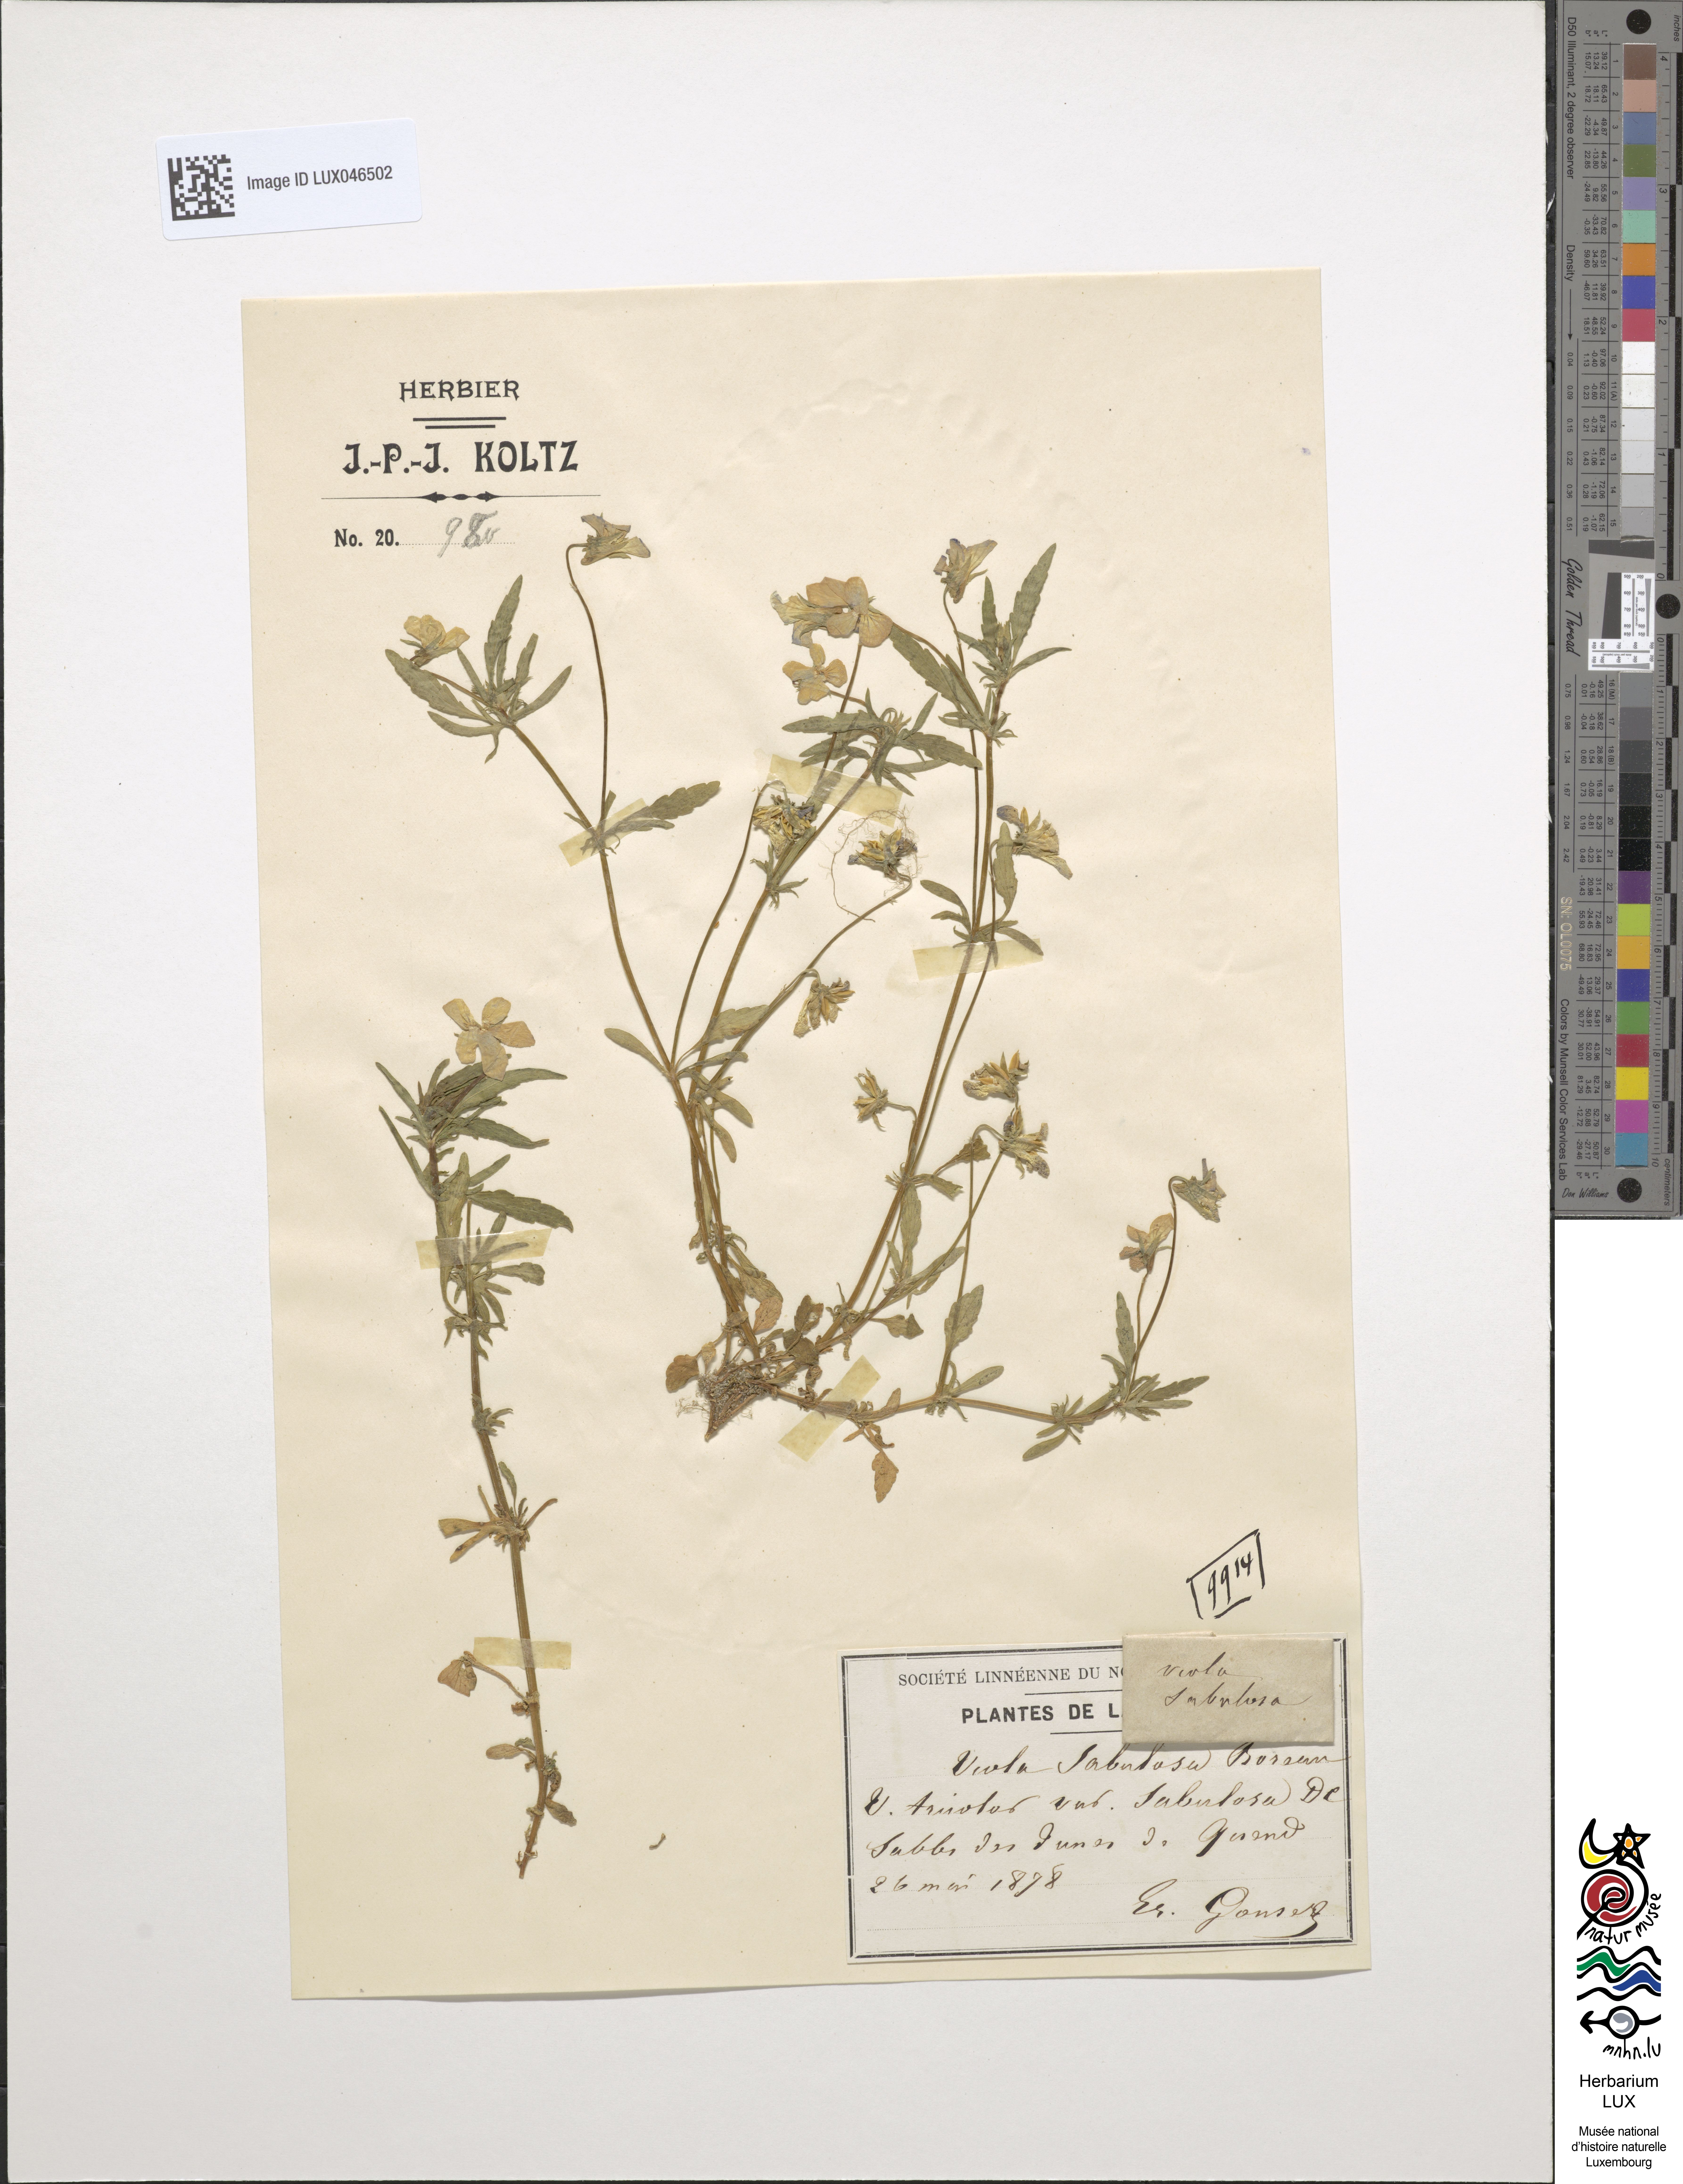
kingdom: Plantae
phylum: Tracheophyta
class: Magnoliopsida
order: Malpighiales
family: Violaceae
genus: Viola
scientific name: Viola tricolor
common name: Pansy
